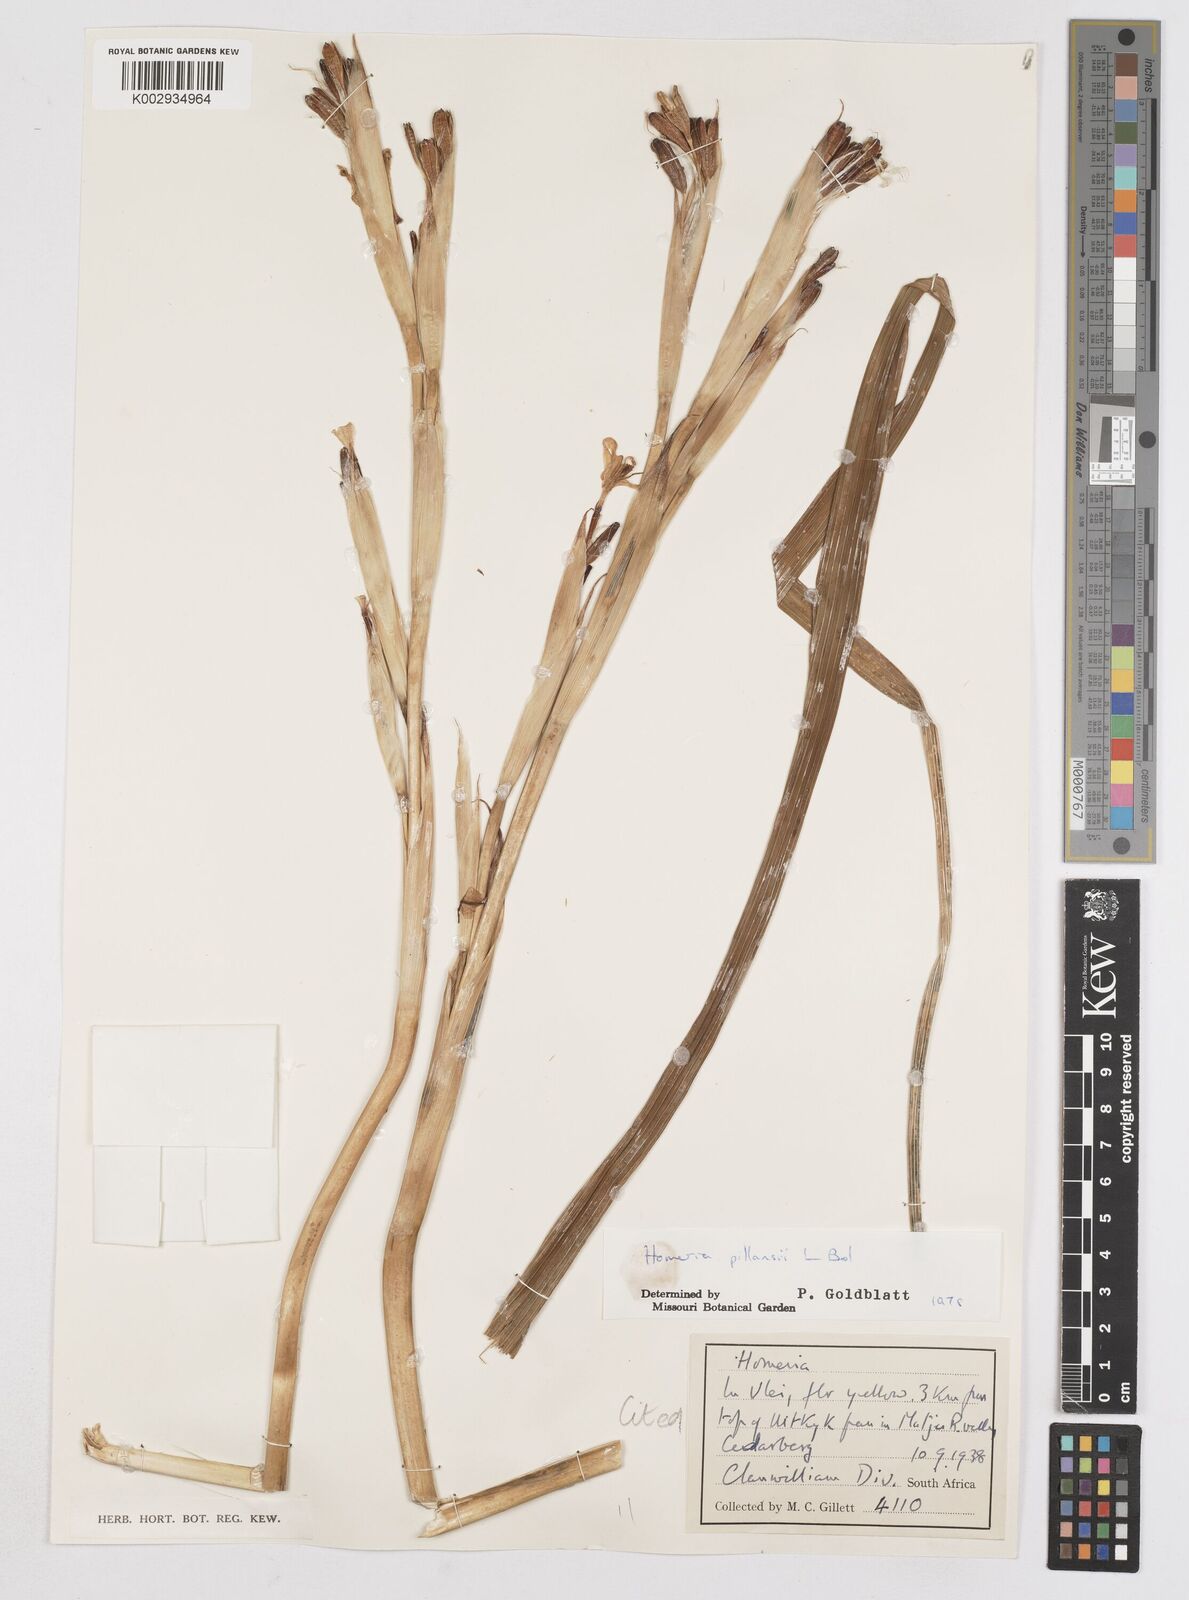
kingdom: Plantae
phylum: Tracheophyta
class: Liliopsida
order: Asparagales
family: Iridaceae
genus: Moraea
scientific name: Moraea cookii
